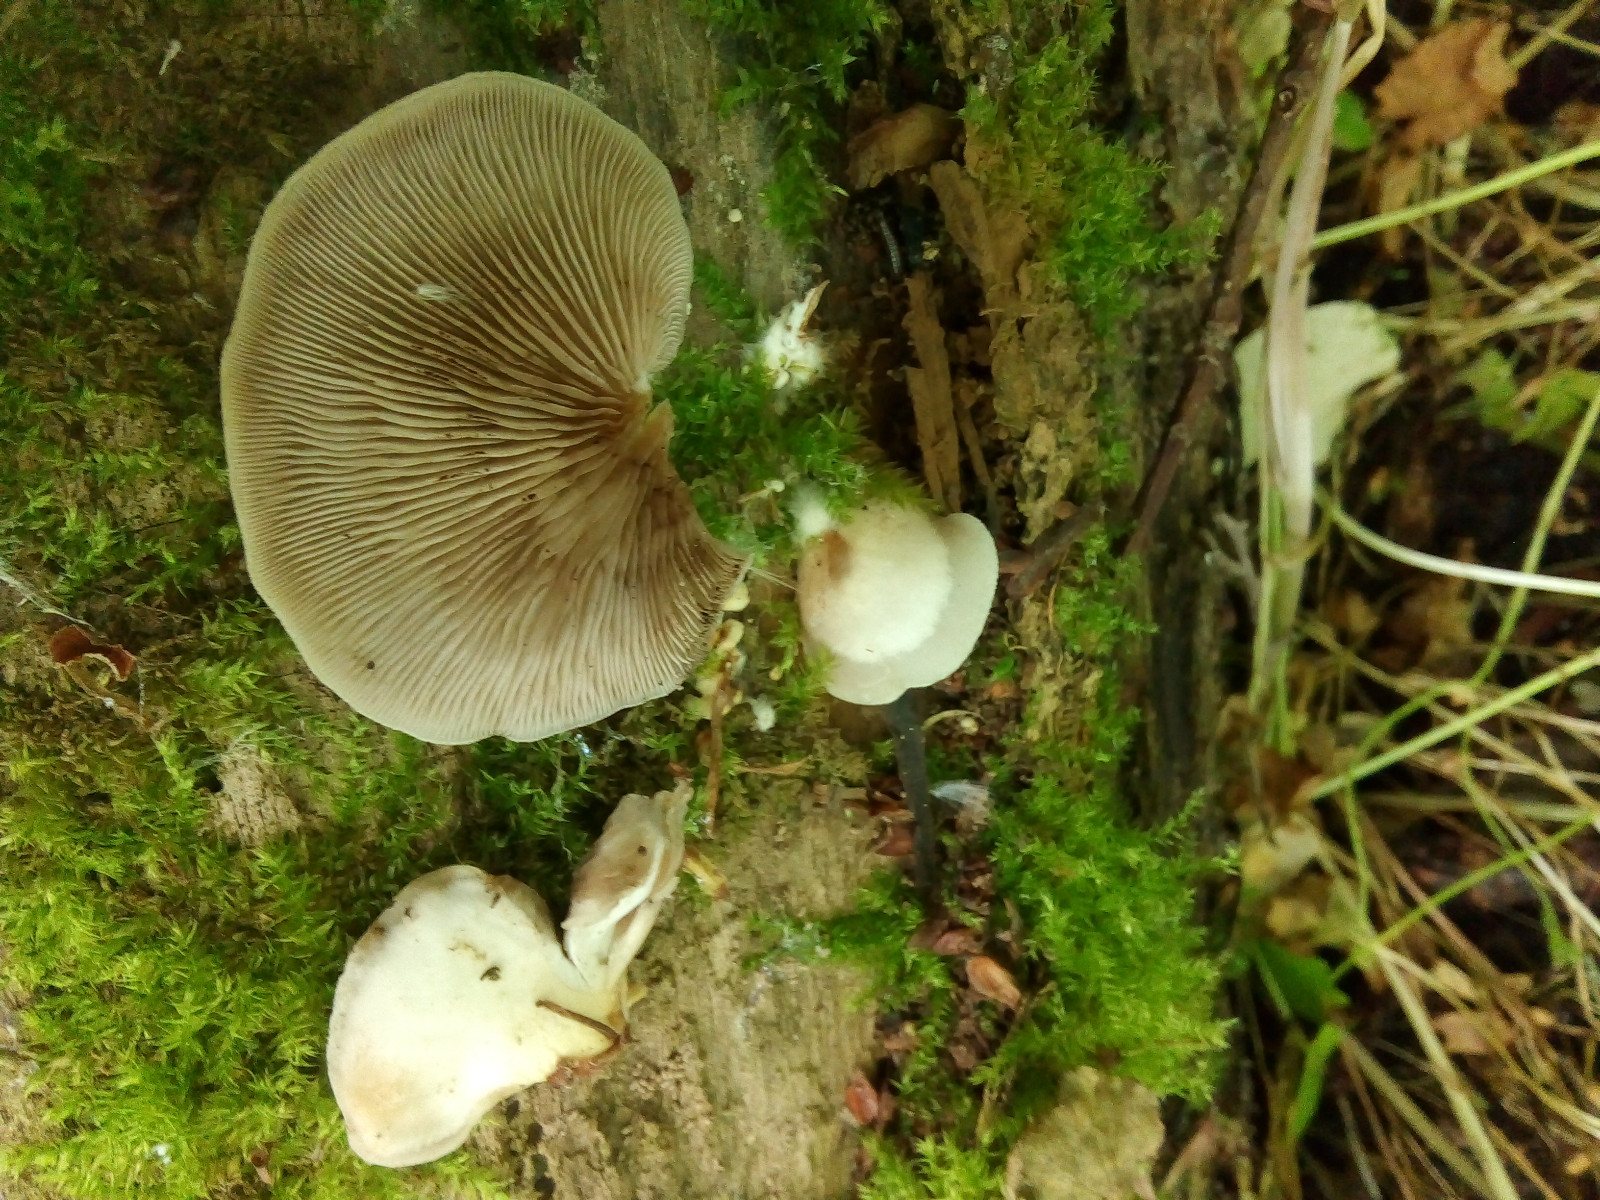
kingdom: Fungi
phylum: Basidiomycota
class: Agaricomycetes
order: Agaricales
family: Crepidotaceae
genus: Crepidotus
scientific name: Crepidotus mollis
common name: blød muslingesvamp
